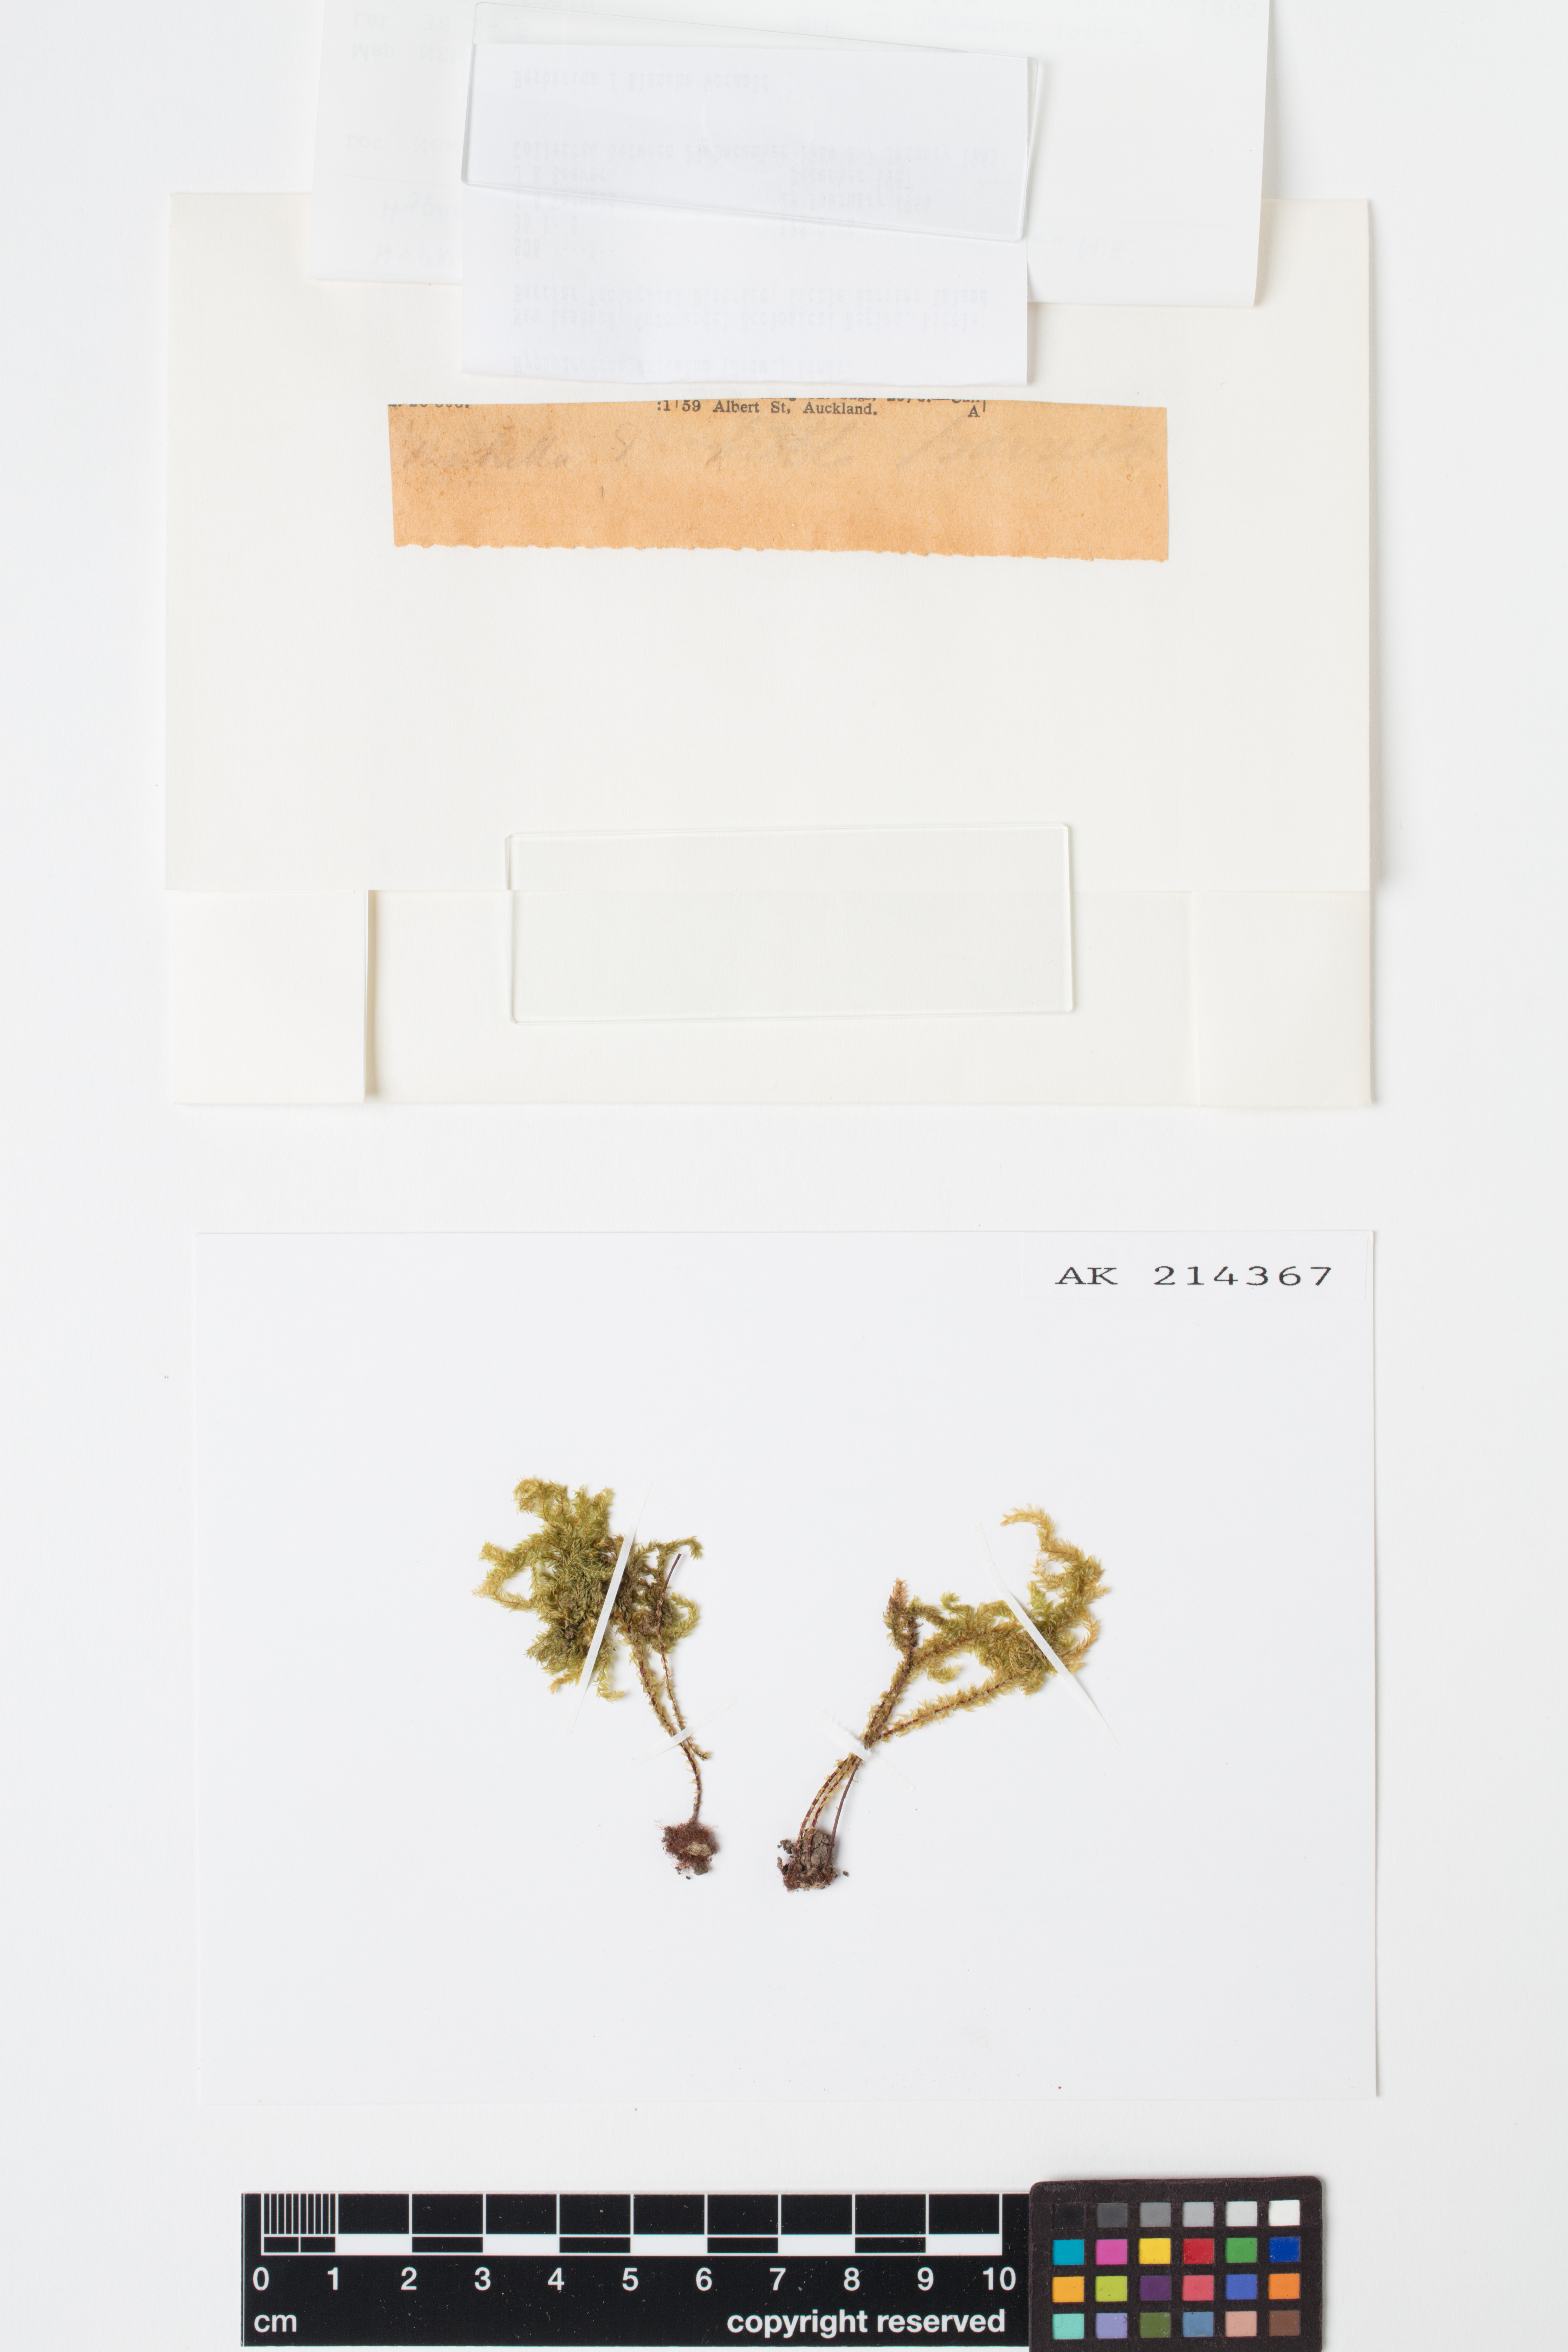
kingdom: Plantae
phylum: Bryophyta
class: Bryopsida
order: Hypnodendrales
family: Spiridentaceae
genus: Hypnodendron
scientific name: Hypnodendron arcuatum
